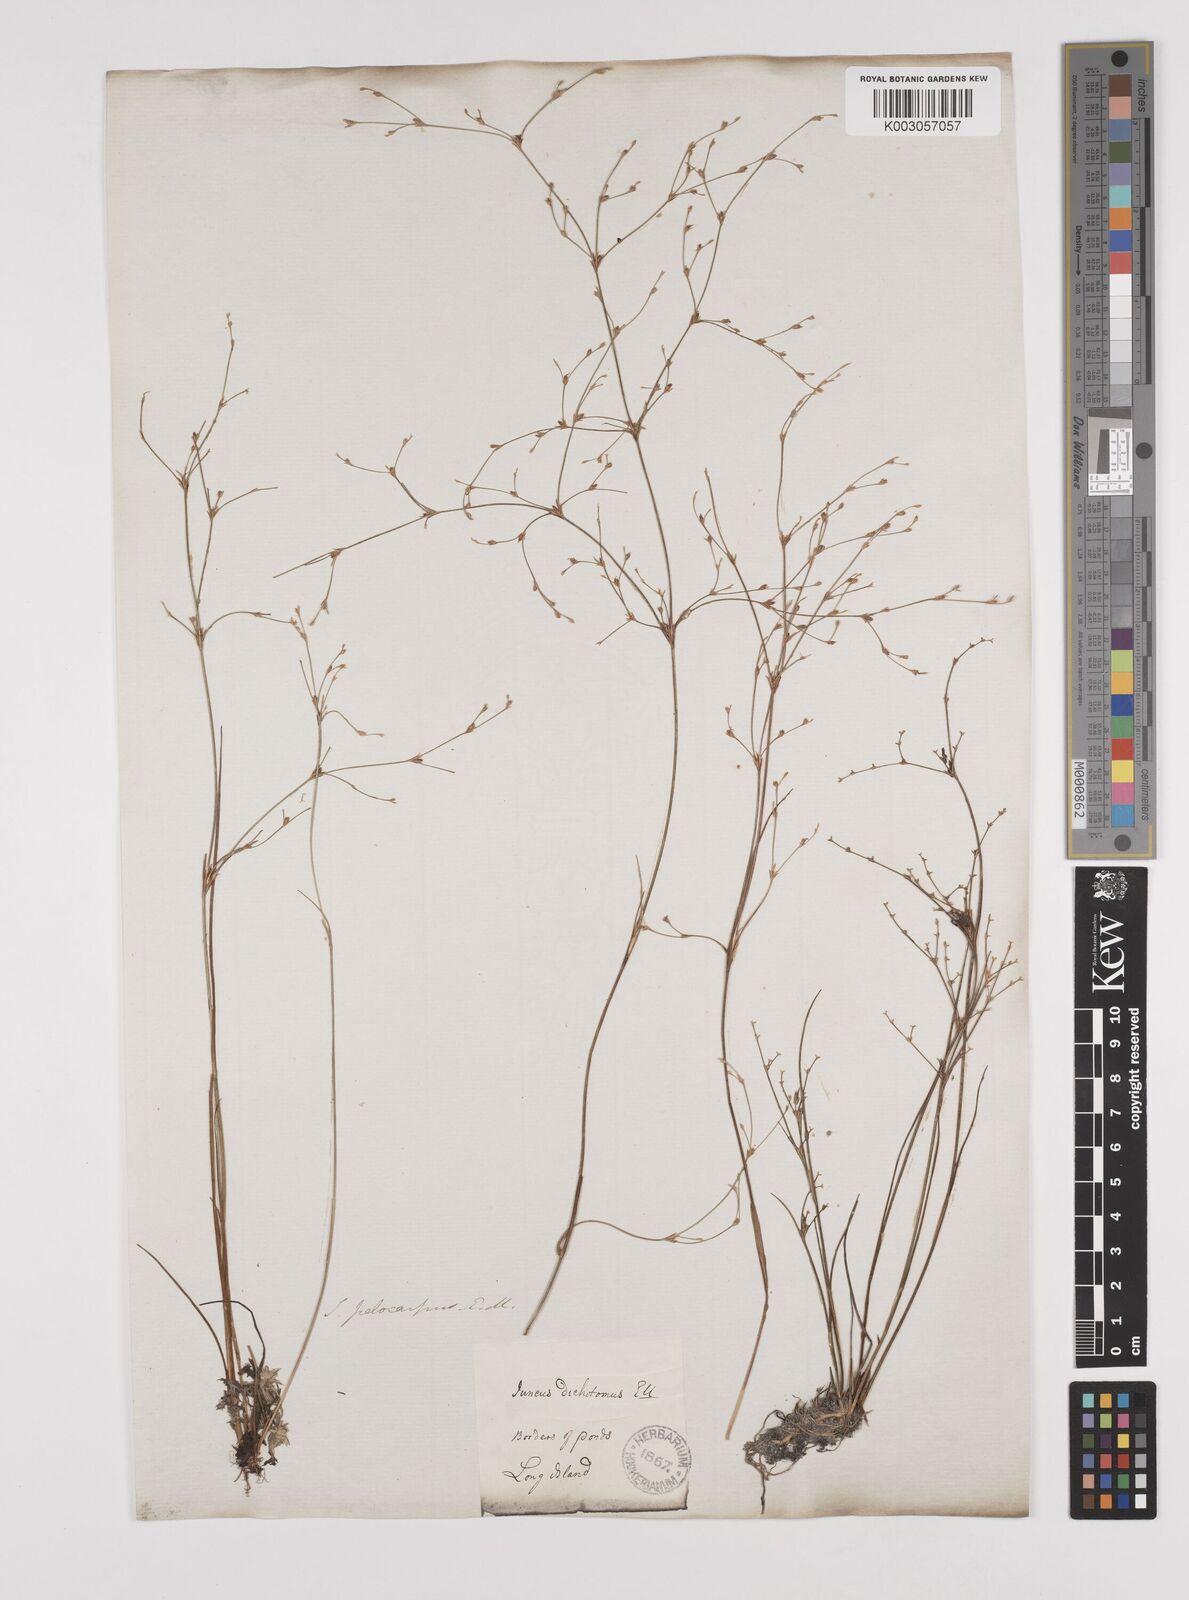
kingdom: Plantae
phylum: Tracheophyta
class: Liliopsida
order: Poales
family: Juncaceae
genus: Juncus
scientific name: Juncus pelocarpus
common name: Brown-fruited rush
